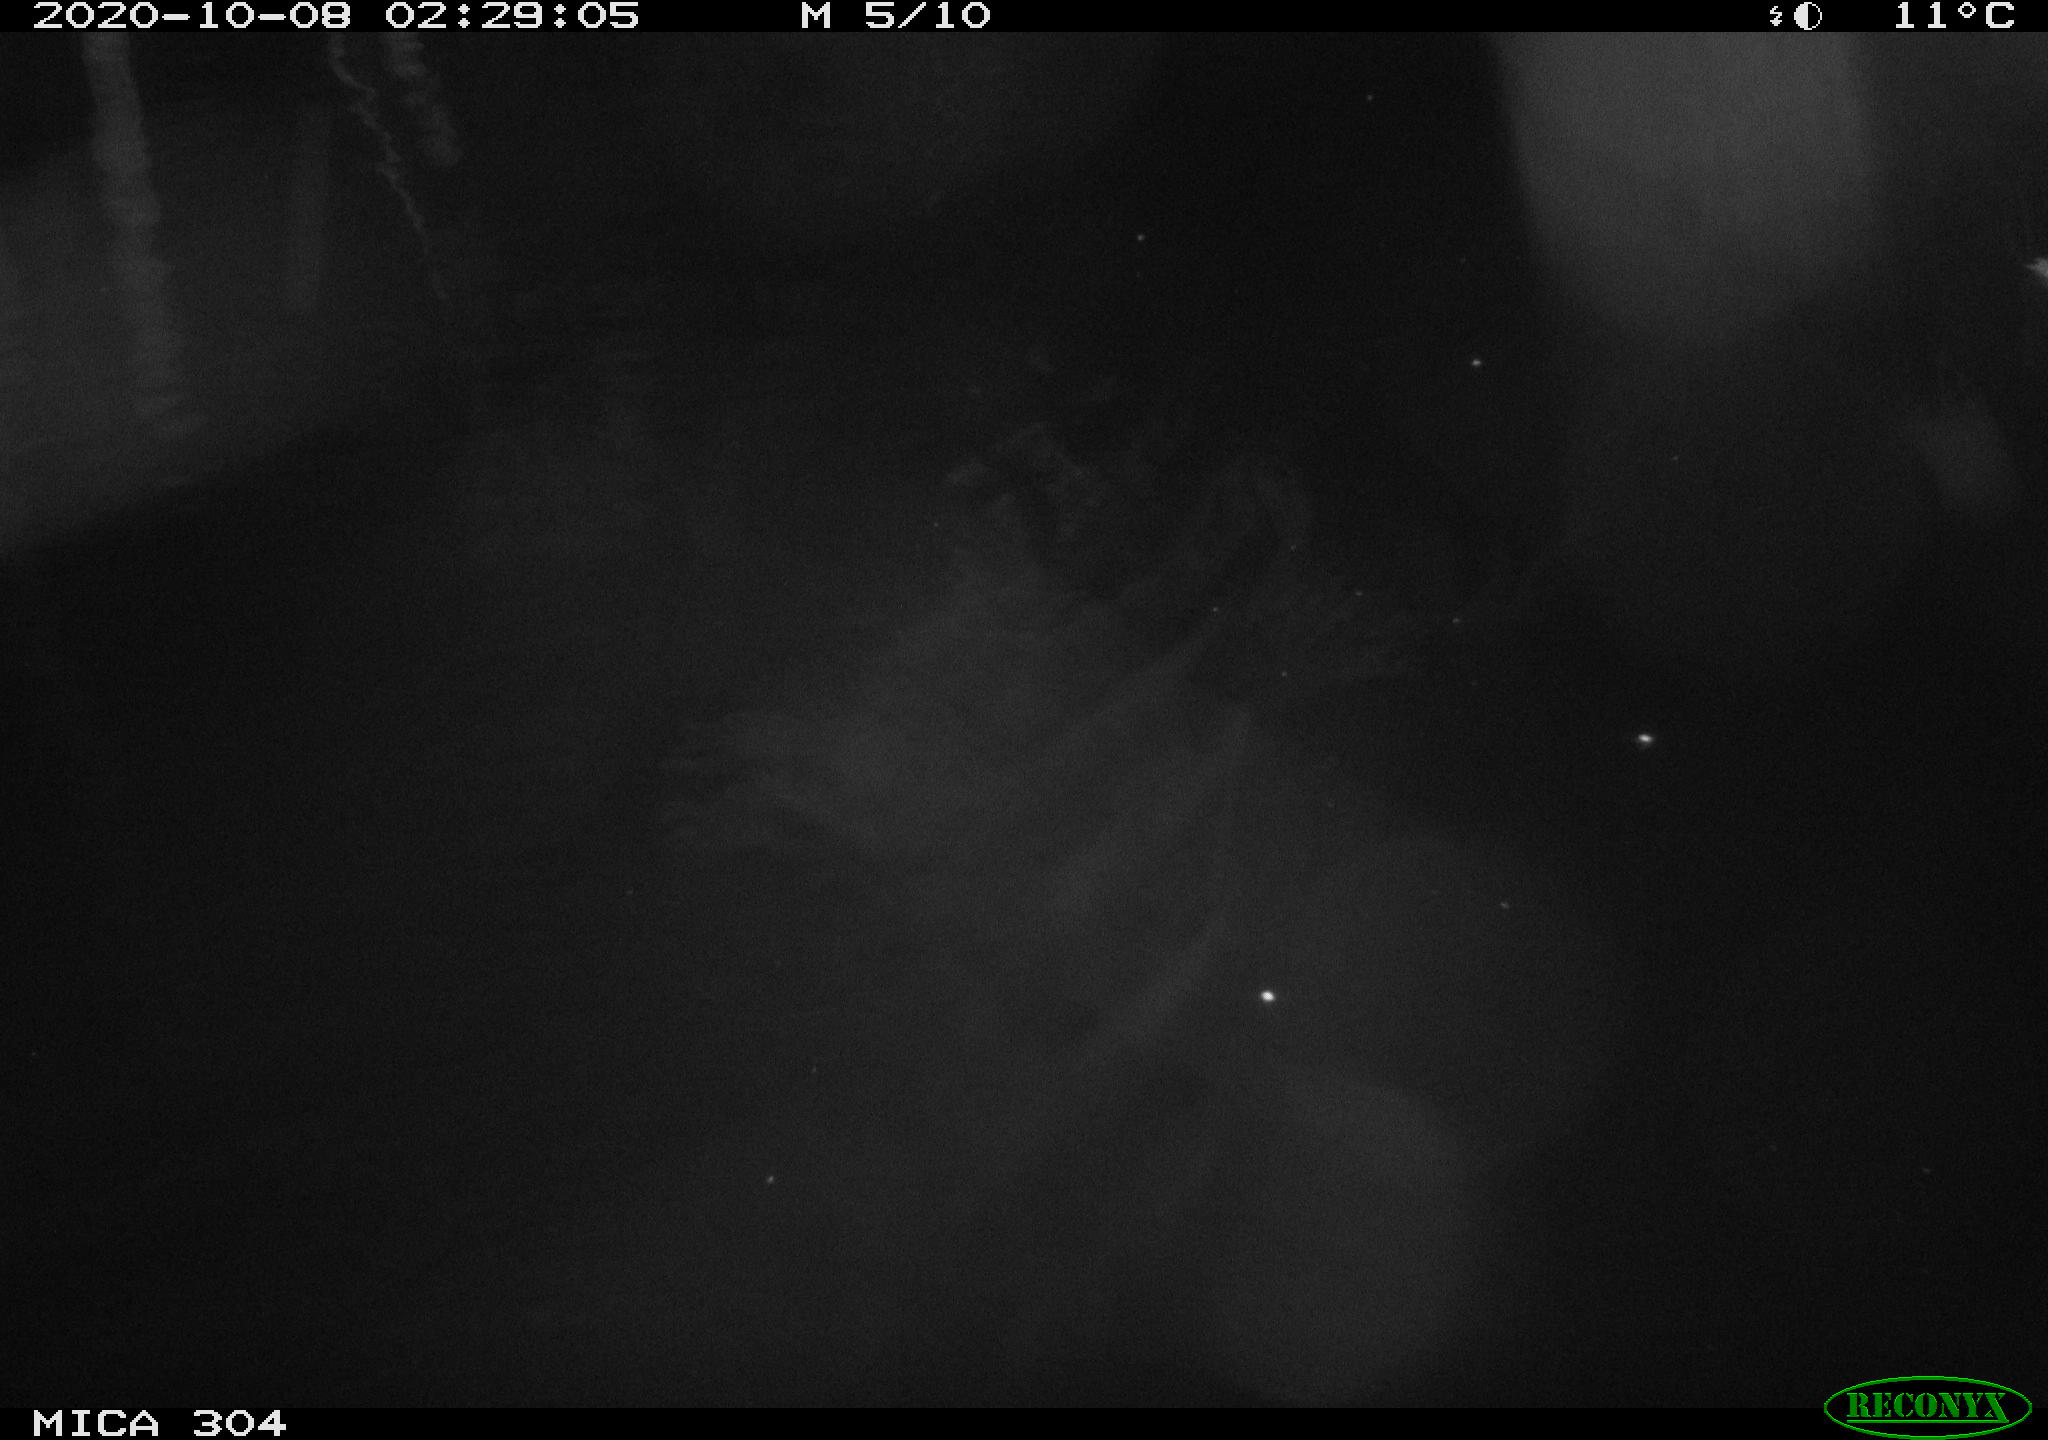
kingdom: Animalia
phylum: Chordata
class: Mammalia
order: Rodentia
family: Muridae
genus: Rattus
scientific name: Rattus norvegicus
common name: Brown rat
